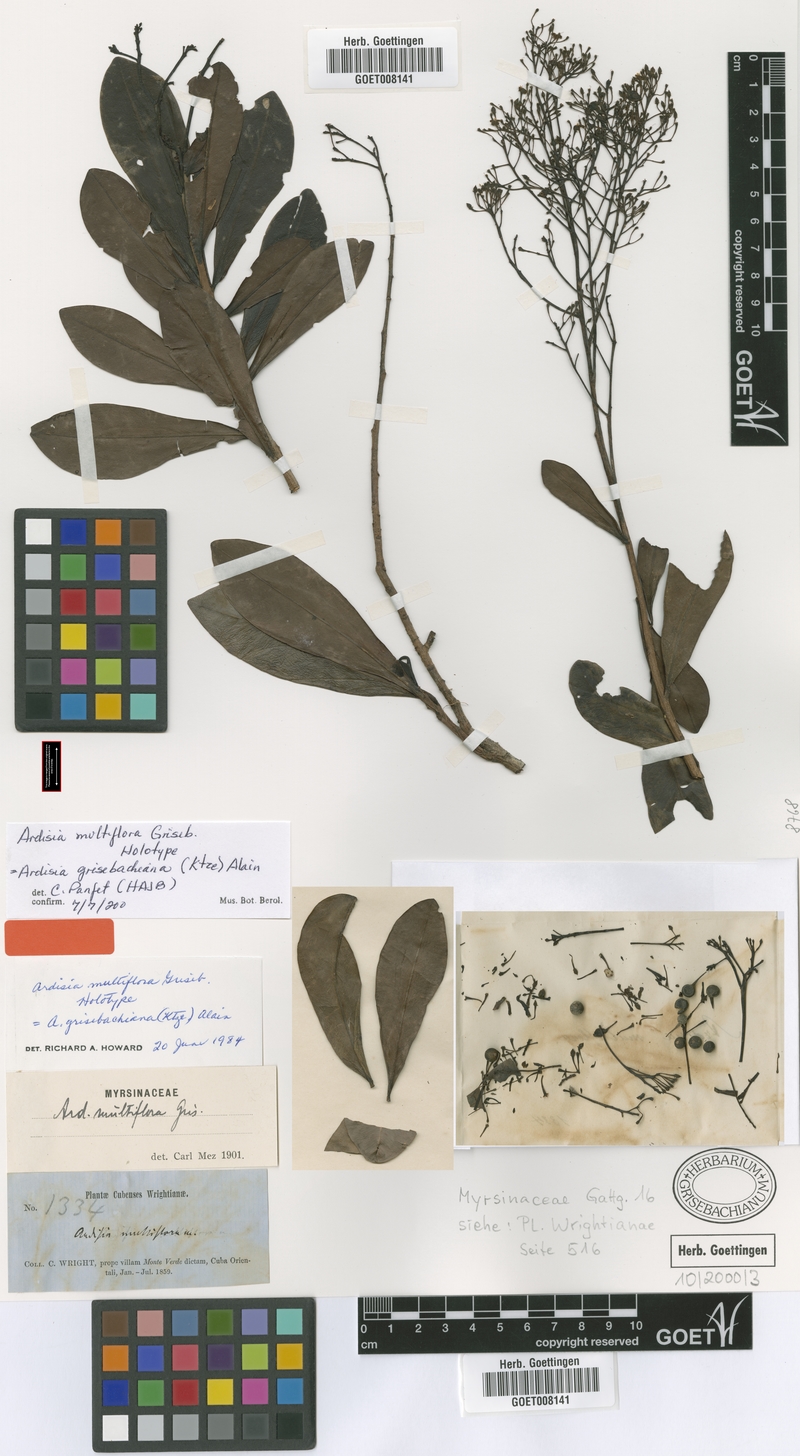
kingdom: Plantae
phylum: Tracheophyta
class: Magnoliopsida
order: Ericales
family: Primulaceae
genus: Ardisia
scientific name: Ardisia grisebachiana
